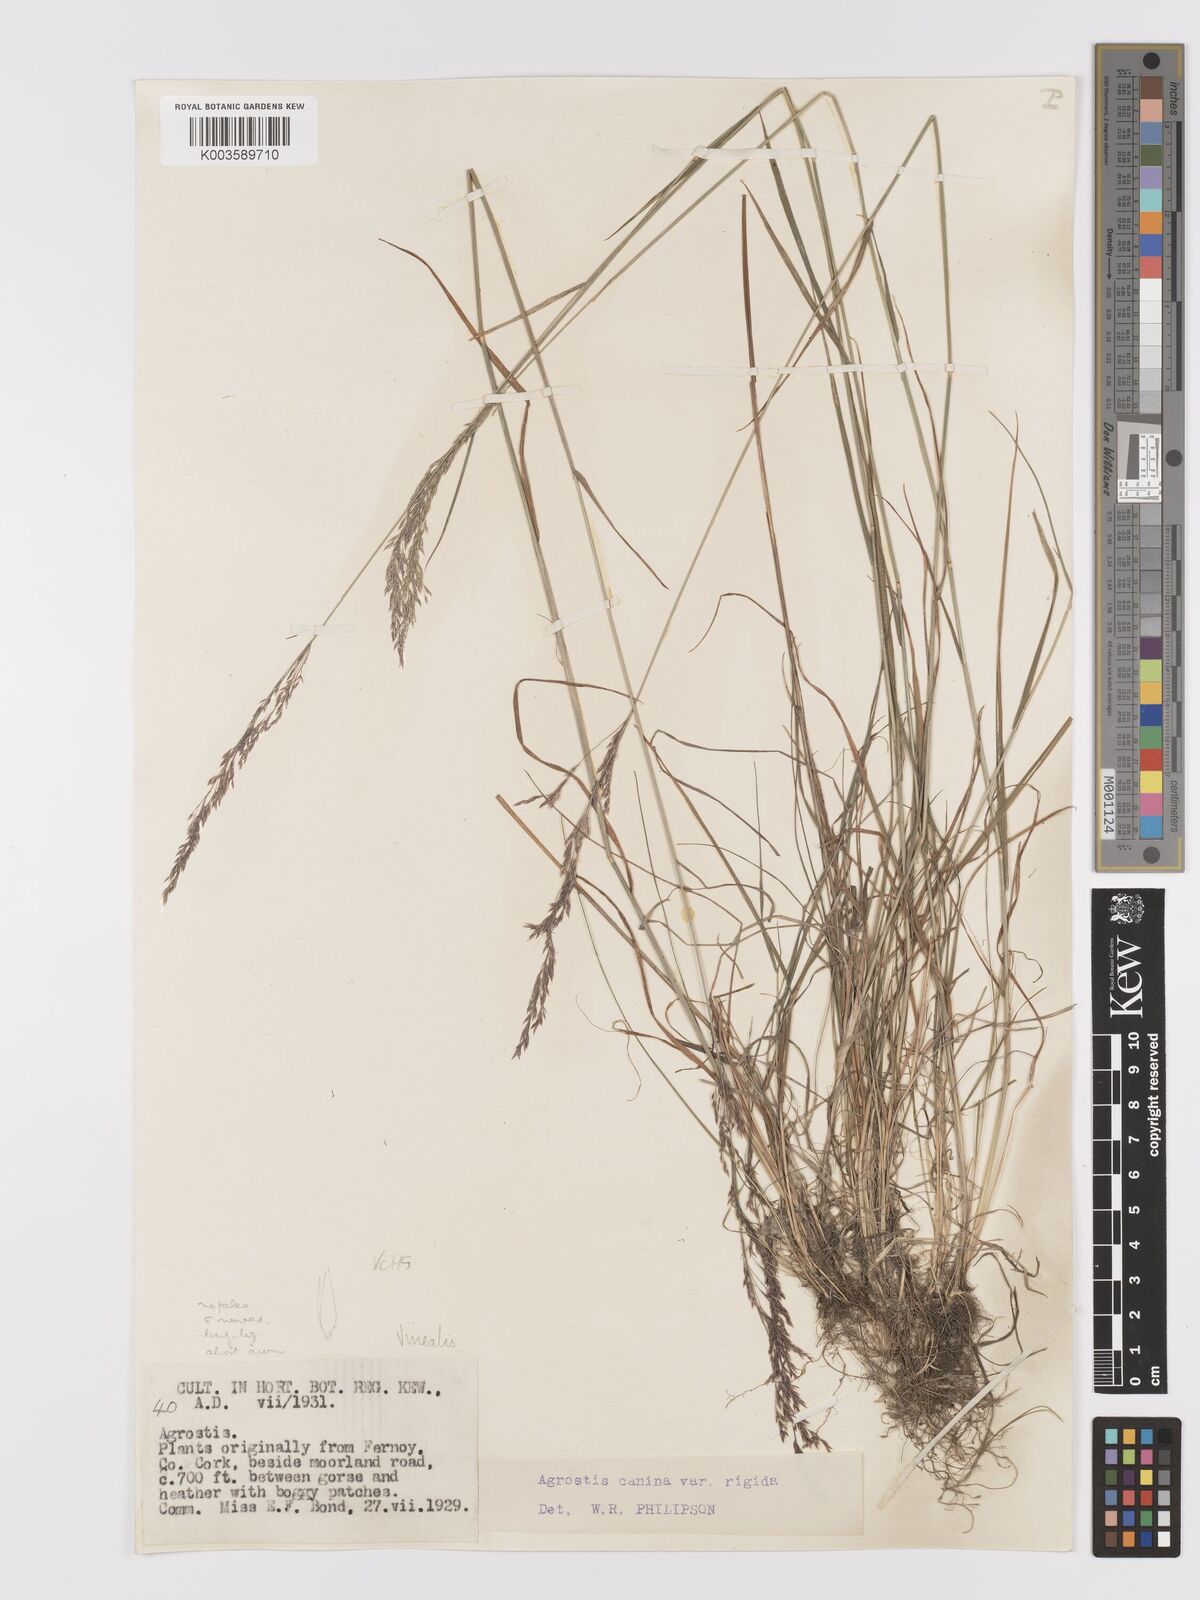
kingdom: Plantae
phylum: Tracheophyta
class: Liliopsida
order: Poales
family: Poaceae
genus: Agrostis
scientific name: Agrostis
